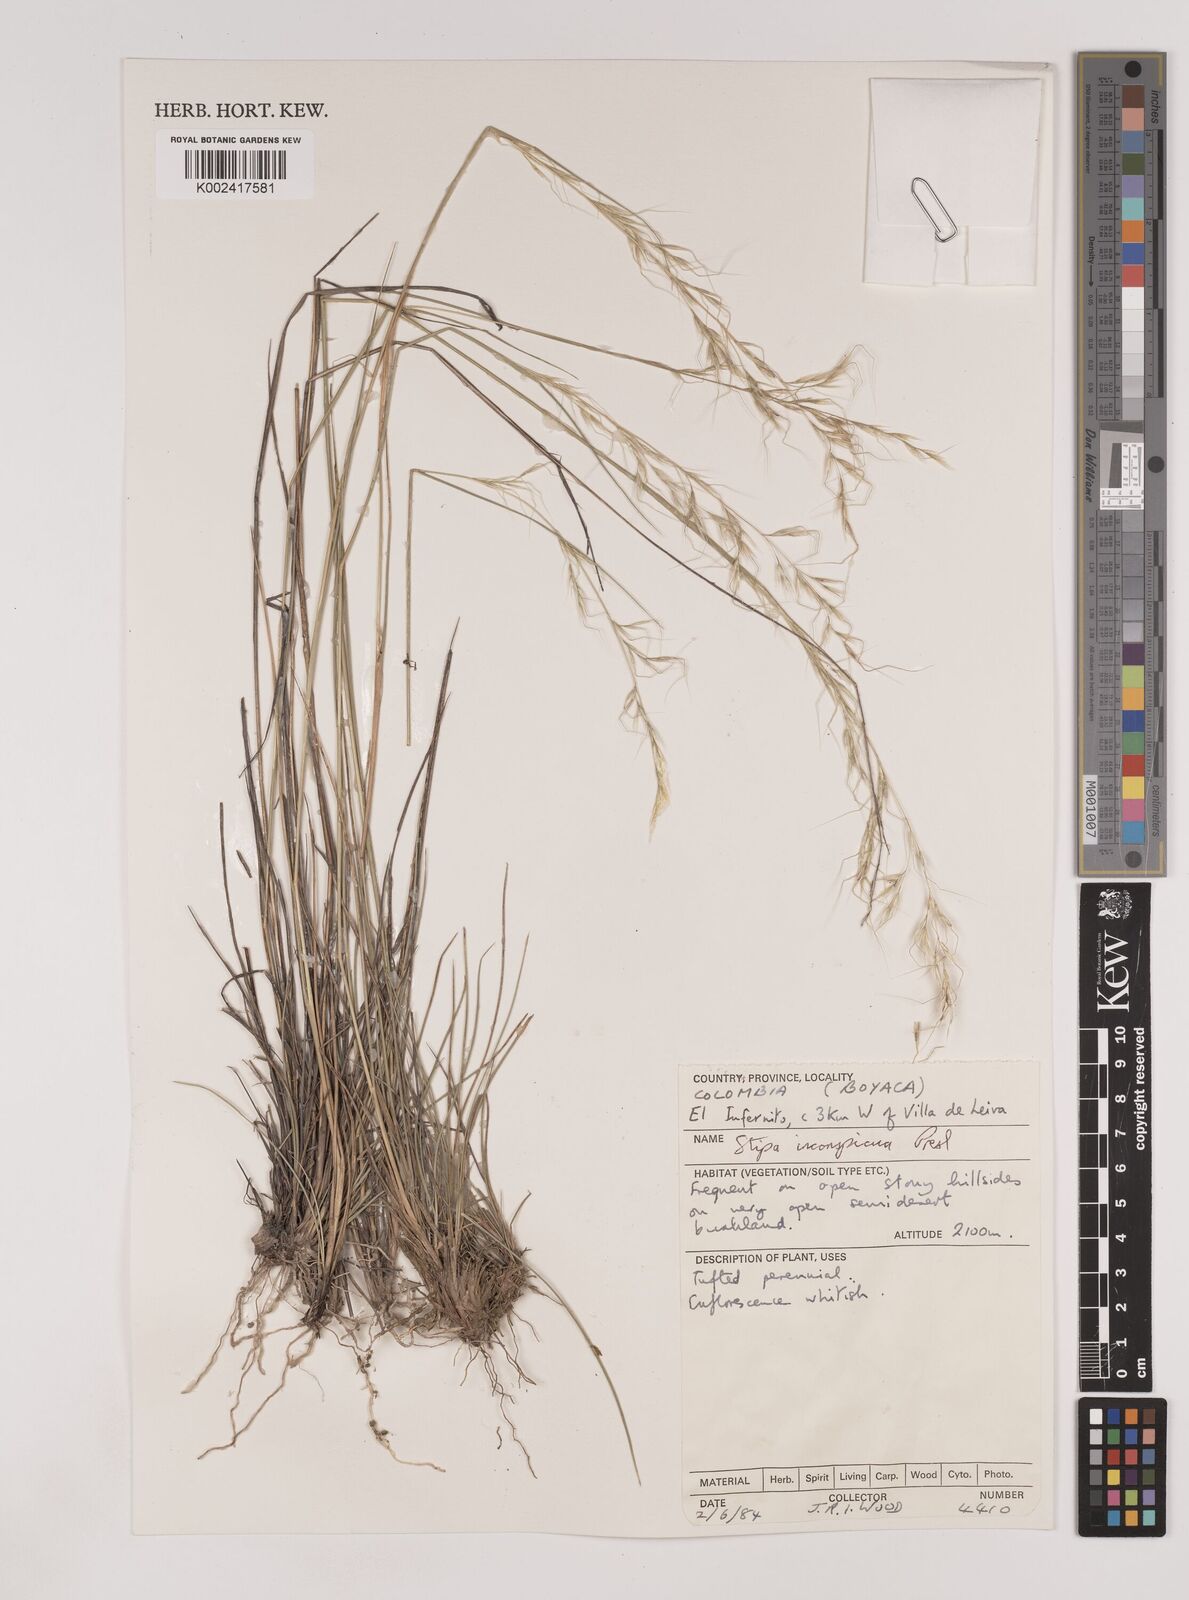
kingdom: Plantae
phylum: Tracheophyta
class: Liliopsida
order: Poales
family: Poaceae
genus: Nassella
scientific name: Nassella
